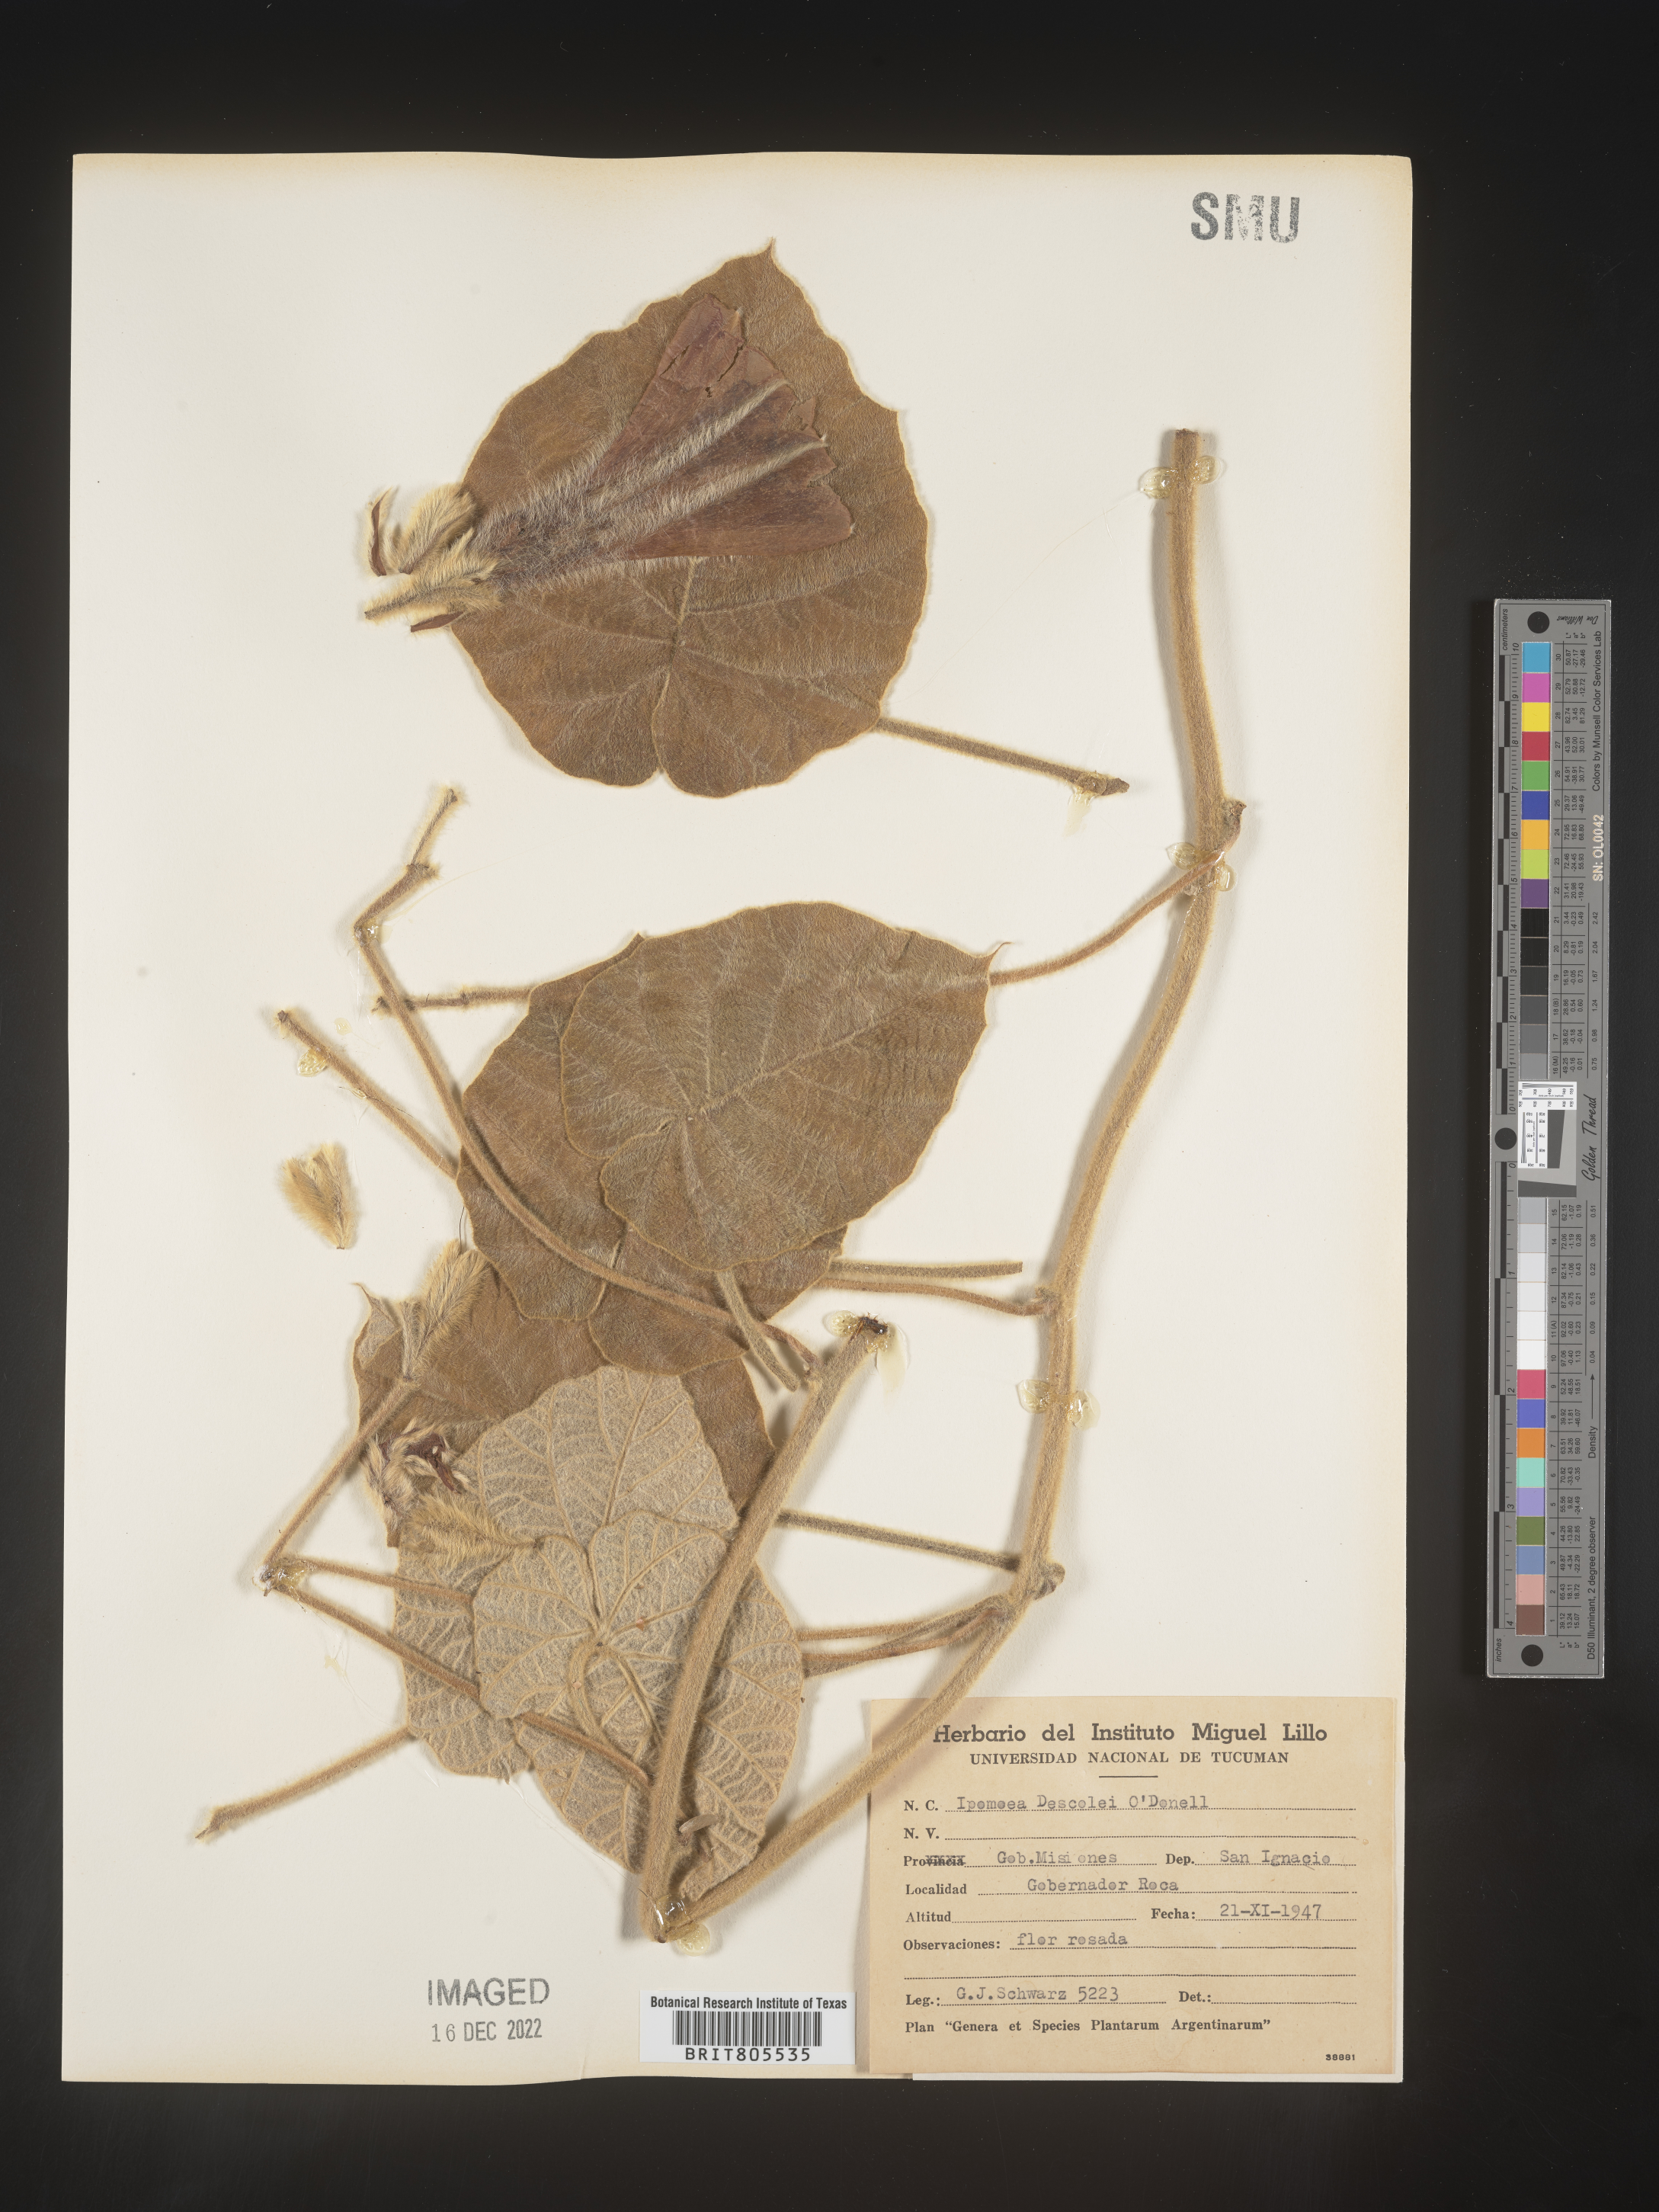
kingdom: Plantae
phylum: Tracheophyta
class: Magnoliopsida
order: Solanales
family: Convolvulaceae
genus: Ipomoea
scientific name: Ipomoea
